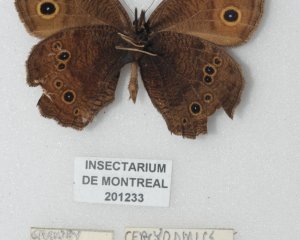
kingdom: Animalia
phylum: Arthropoda
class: Insecta
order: Lepidoptera
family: Nymphalidae
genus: Cercyonis
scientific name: Cercyonis pegala
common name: Common Wood-Nymph
